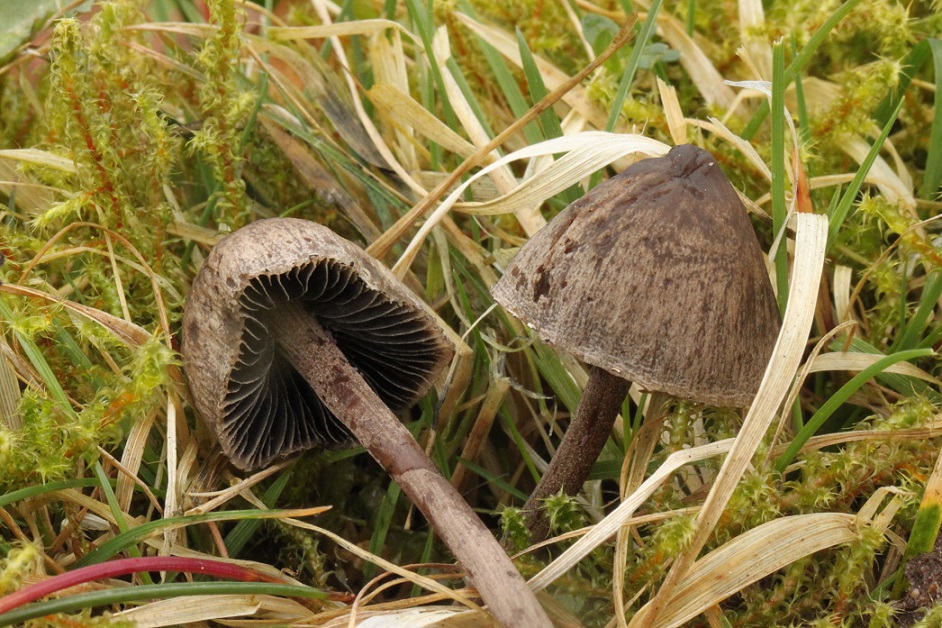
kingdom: Fungi
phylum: Basidiomycota
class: Agaricomycetes
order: Agaricales
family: Bolbitiaceae
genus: Panaeolus
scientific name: Panaeolus papilionaceus
